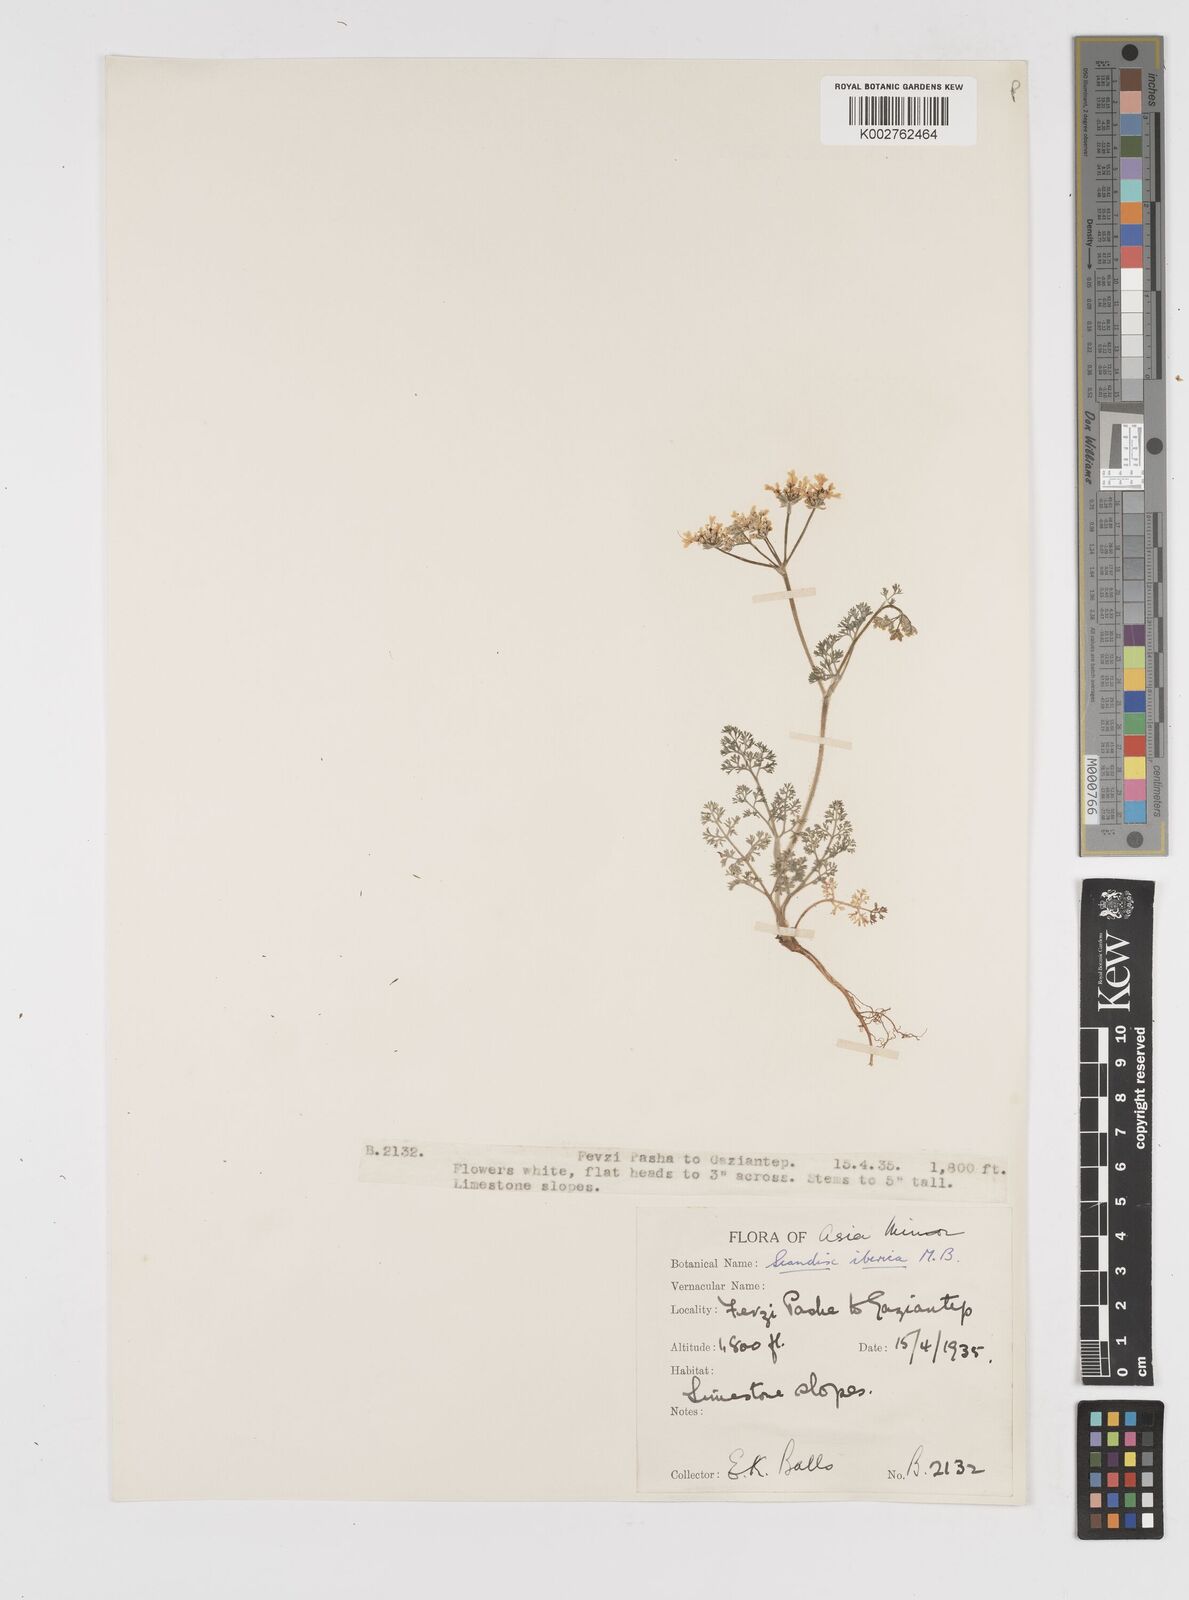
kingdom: Plantae
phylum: Tracheophyta
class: Magnoliopsida
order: Apiales
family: Apiaceae
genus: Scandix
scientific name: Scandix iberica
